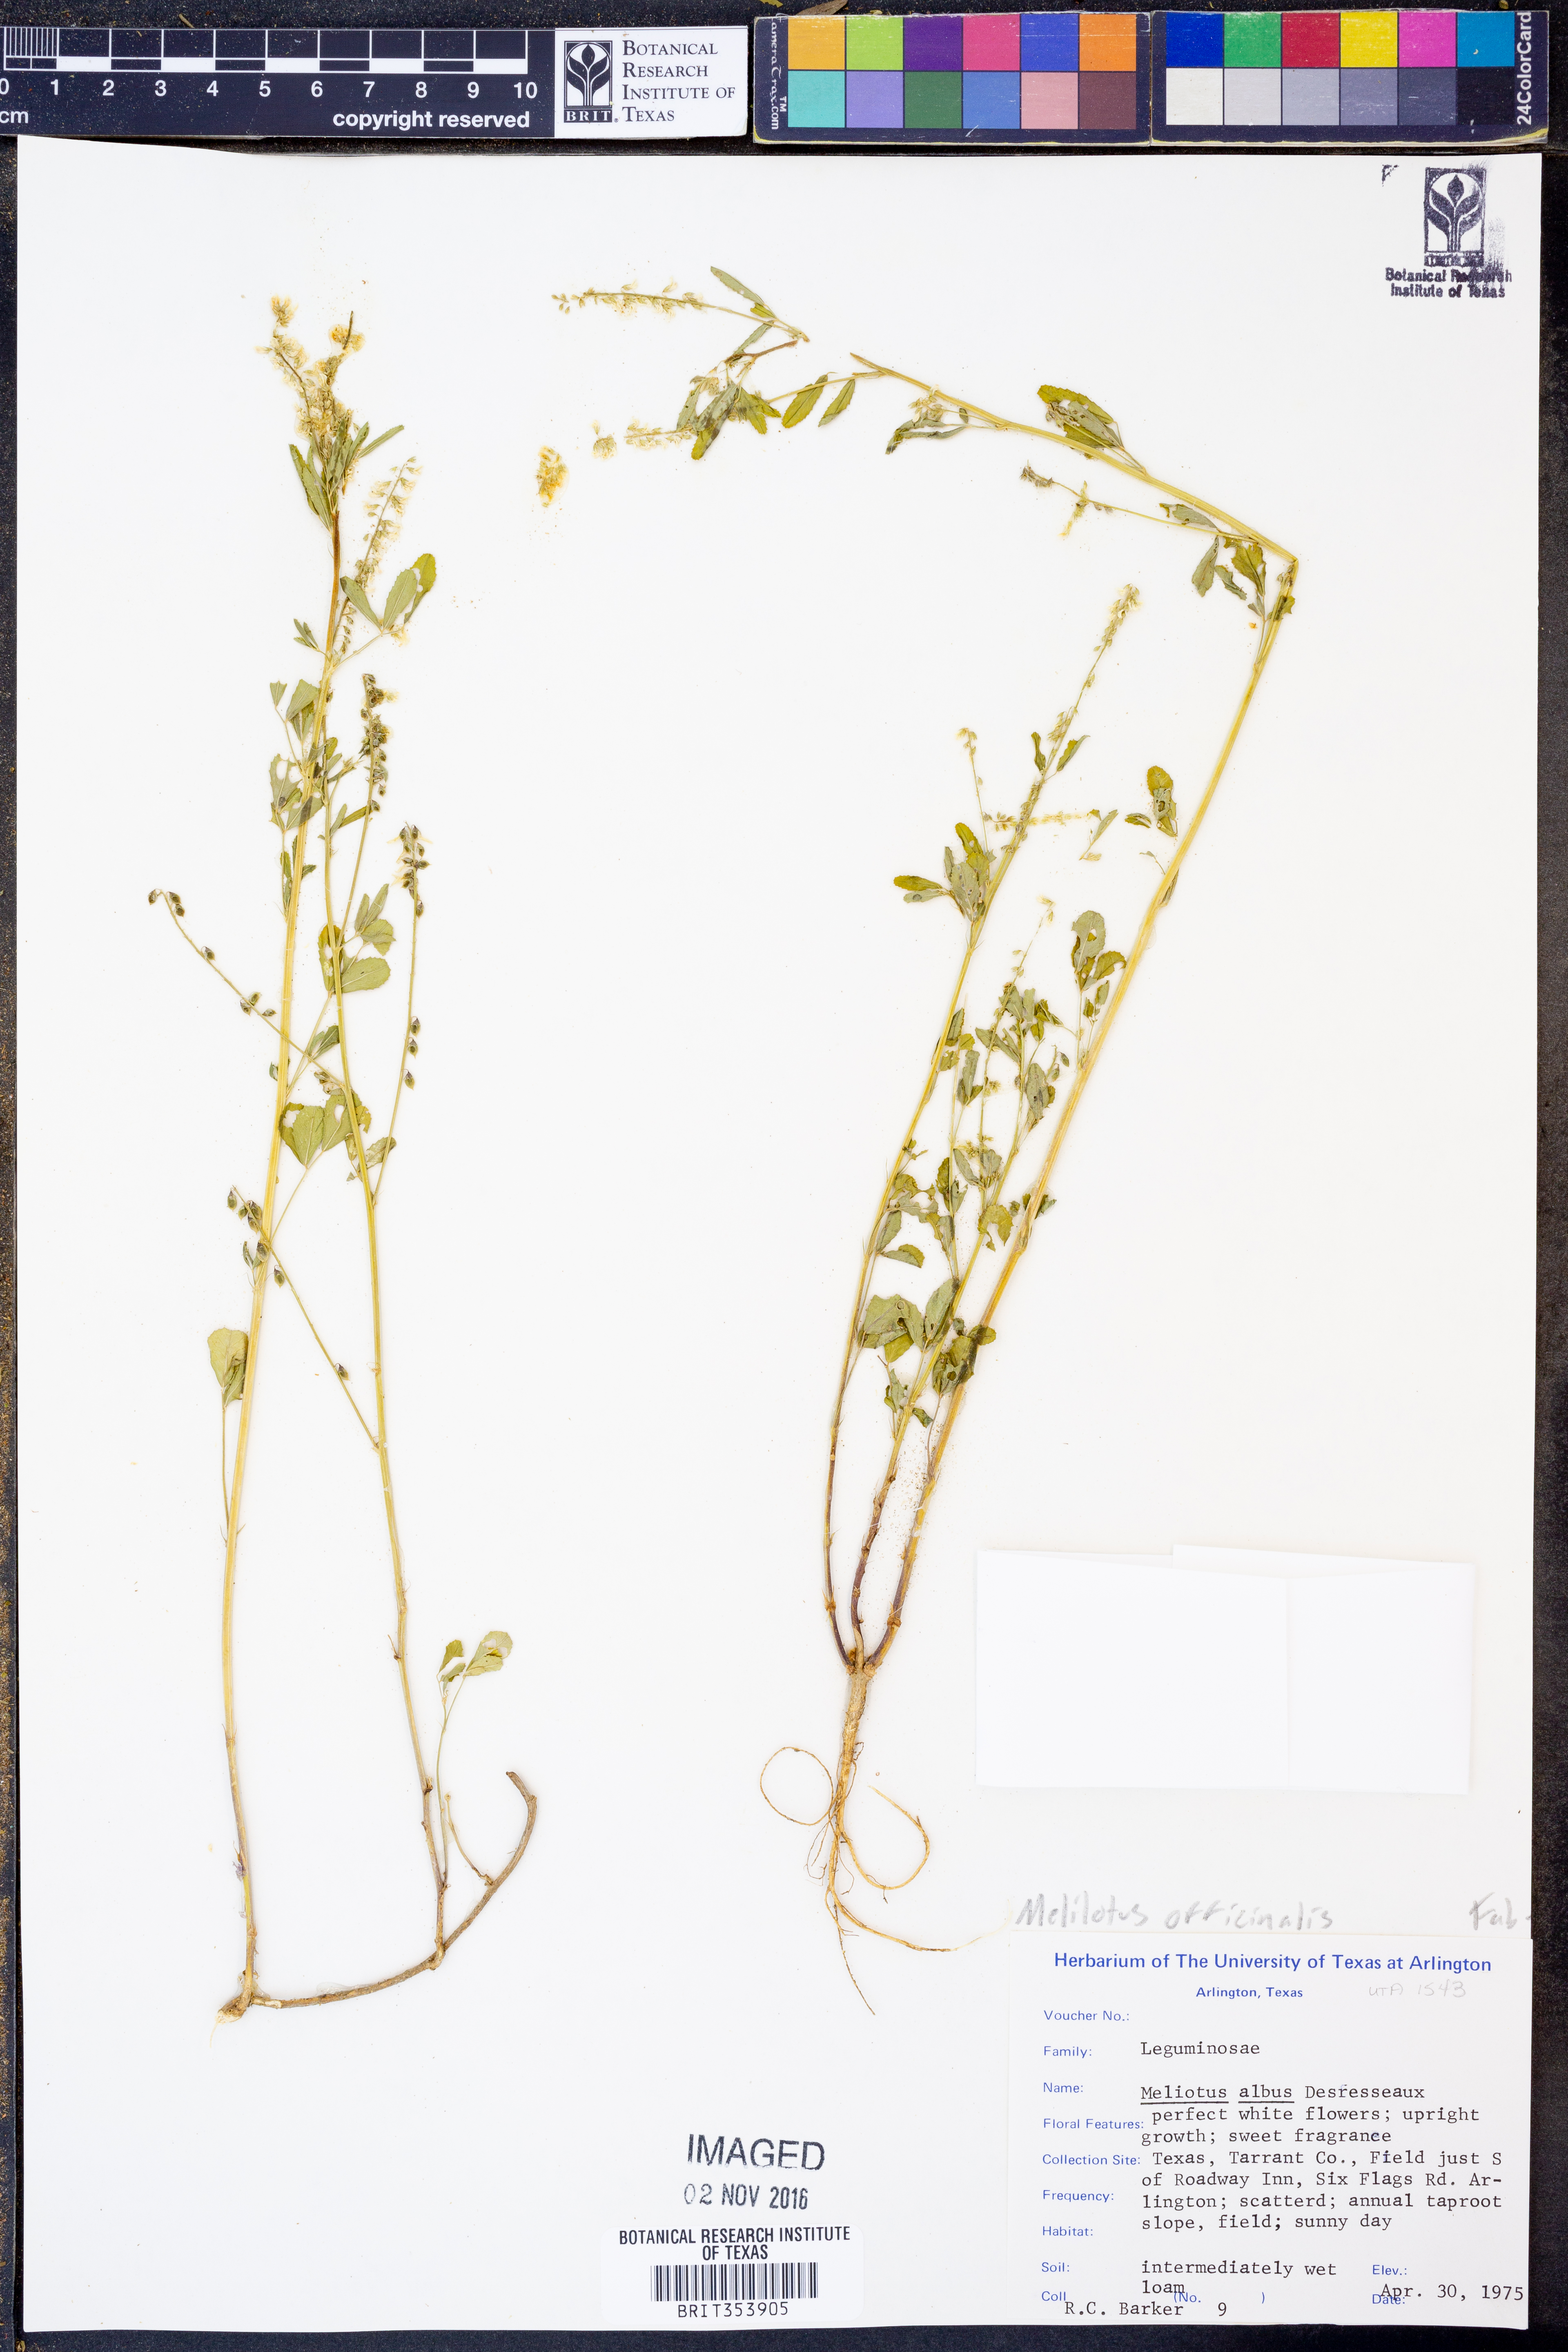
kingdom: Plantae
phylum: Tracheophyta
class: Magnoliopsida
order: Fabales
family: Fabaceae
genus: Melilotus
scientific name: Melilotus officinalis
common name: Sweetclover
